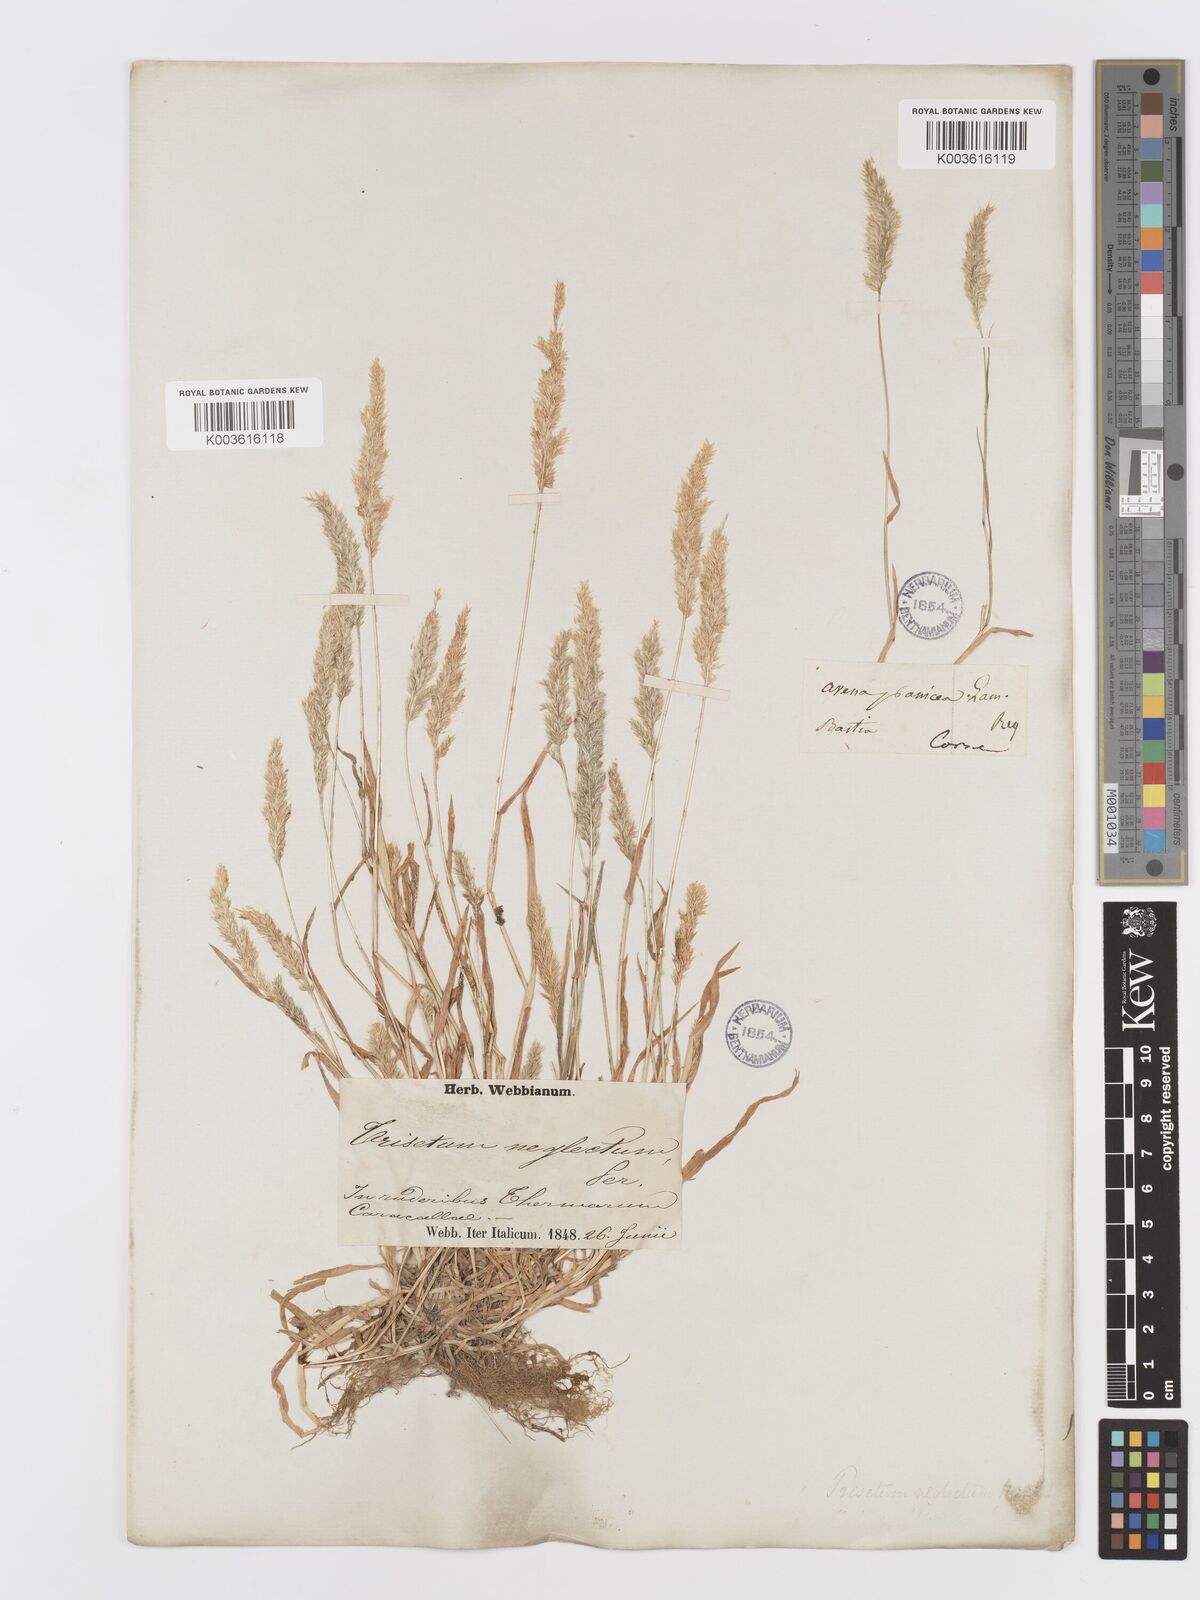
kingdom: Plantae
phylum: Tracheophyta
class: Liliopsida
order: Poales
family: Poaceae
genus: Trisetaria
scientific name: Trisetaria panicea
